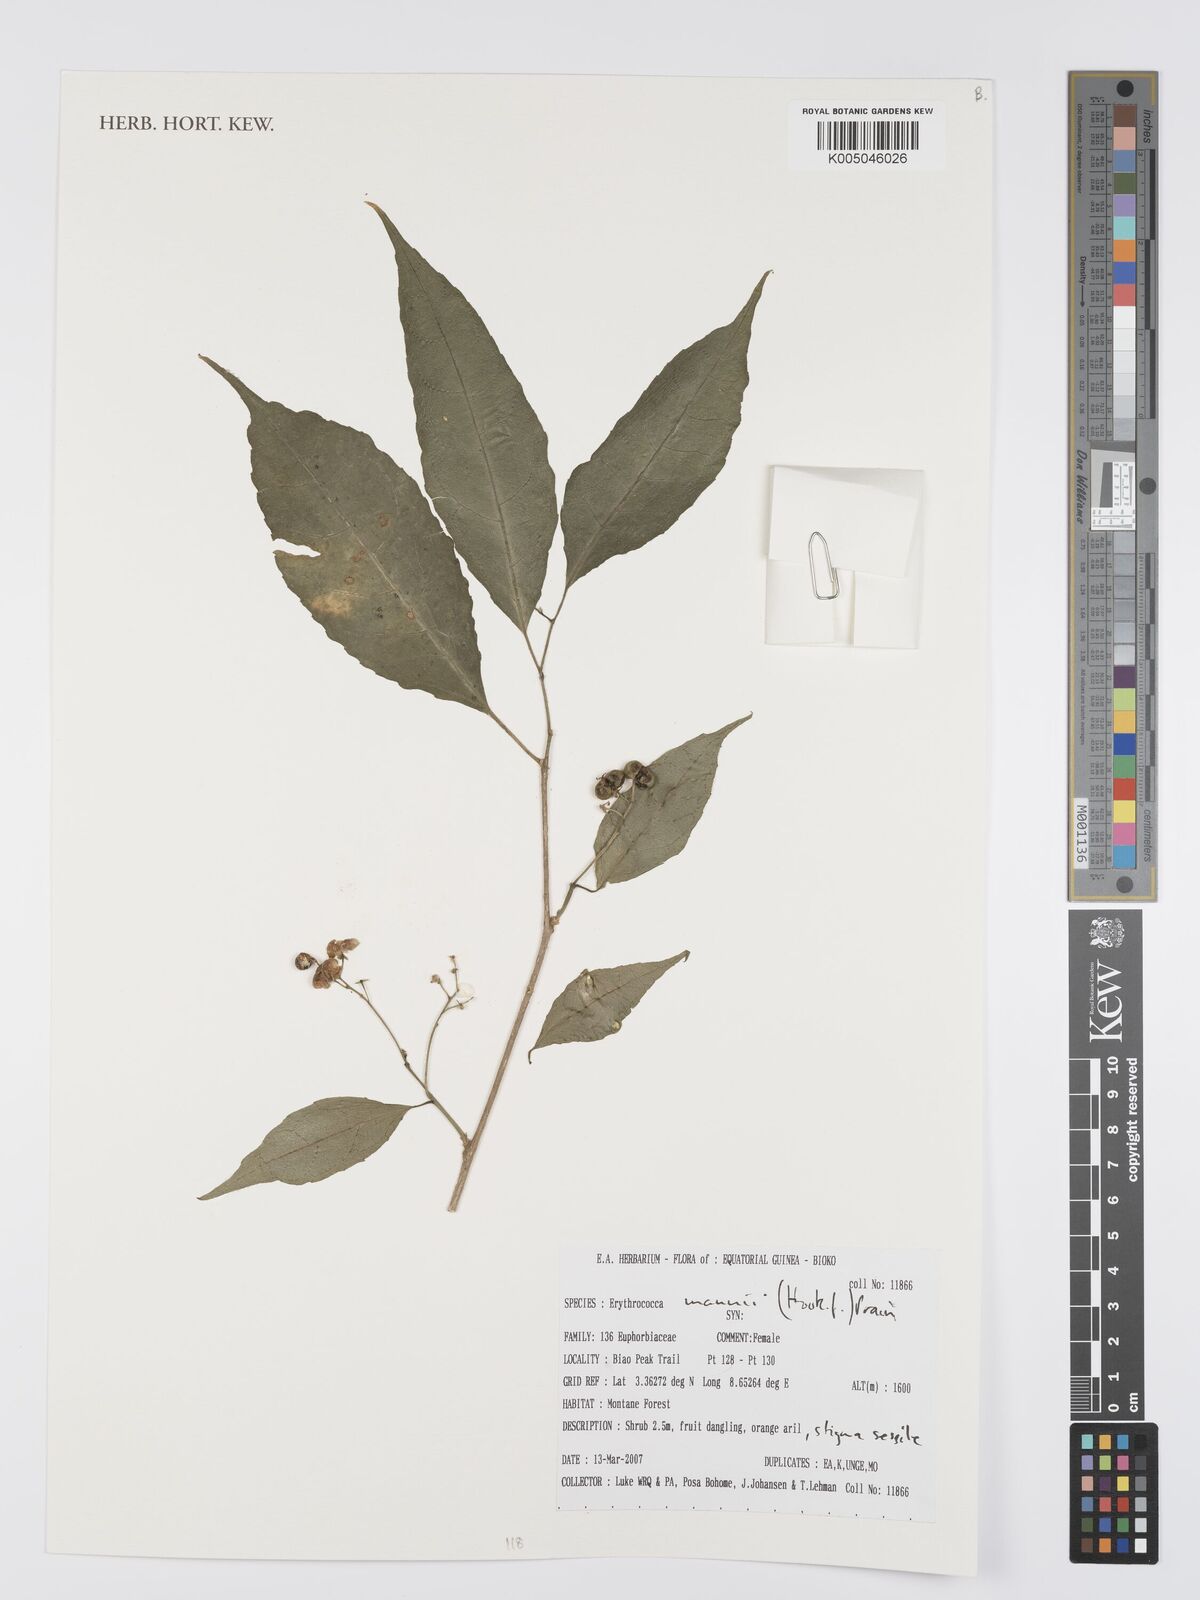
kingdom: Plantae
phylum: Tracheophyta
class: Magnoliopsida
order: Malpighiales
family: Euphorbiaceae
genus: Erythrococca
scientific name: Erythrococca mannii
